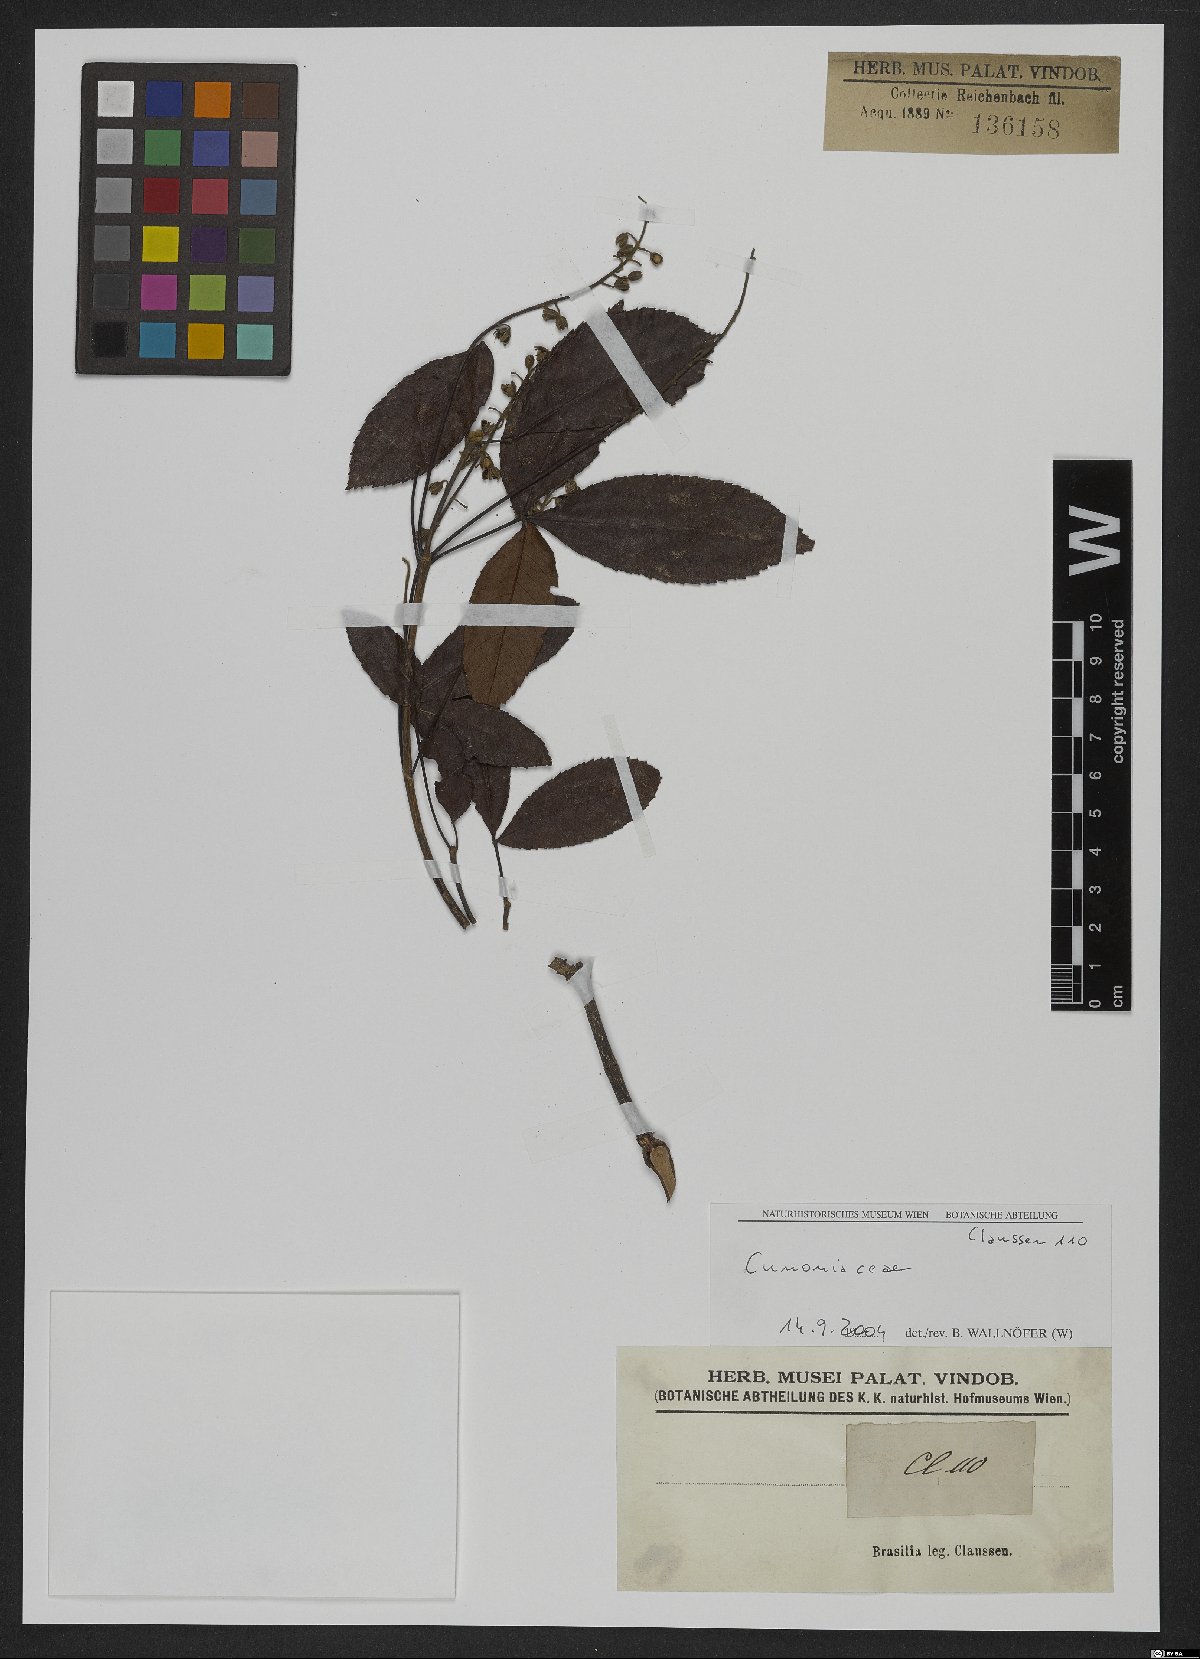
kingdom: Plantae
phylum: Tracheophyta
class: Magnoliopsida
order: Oxalidales
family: Cunoniaceae
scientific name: Cunoniaceae
